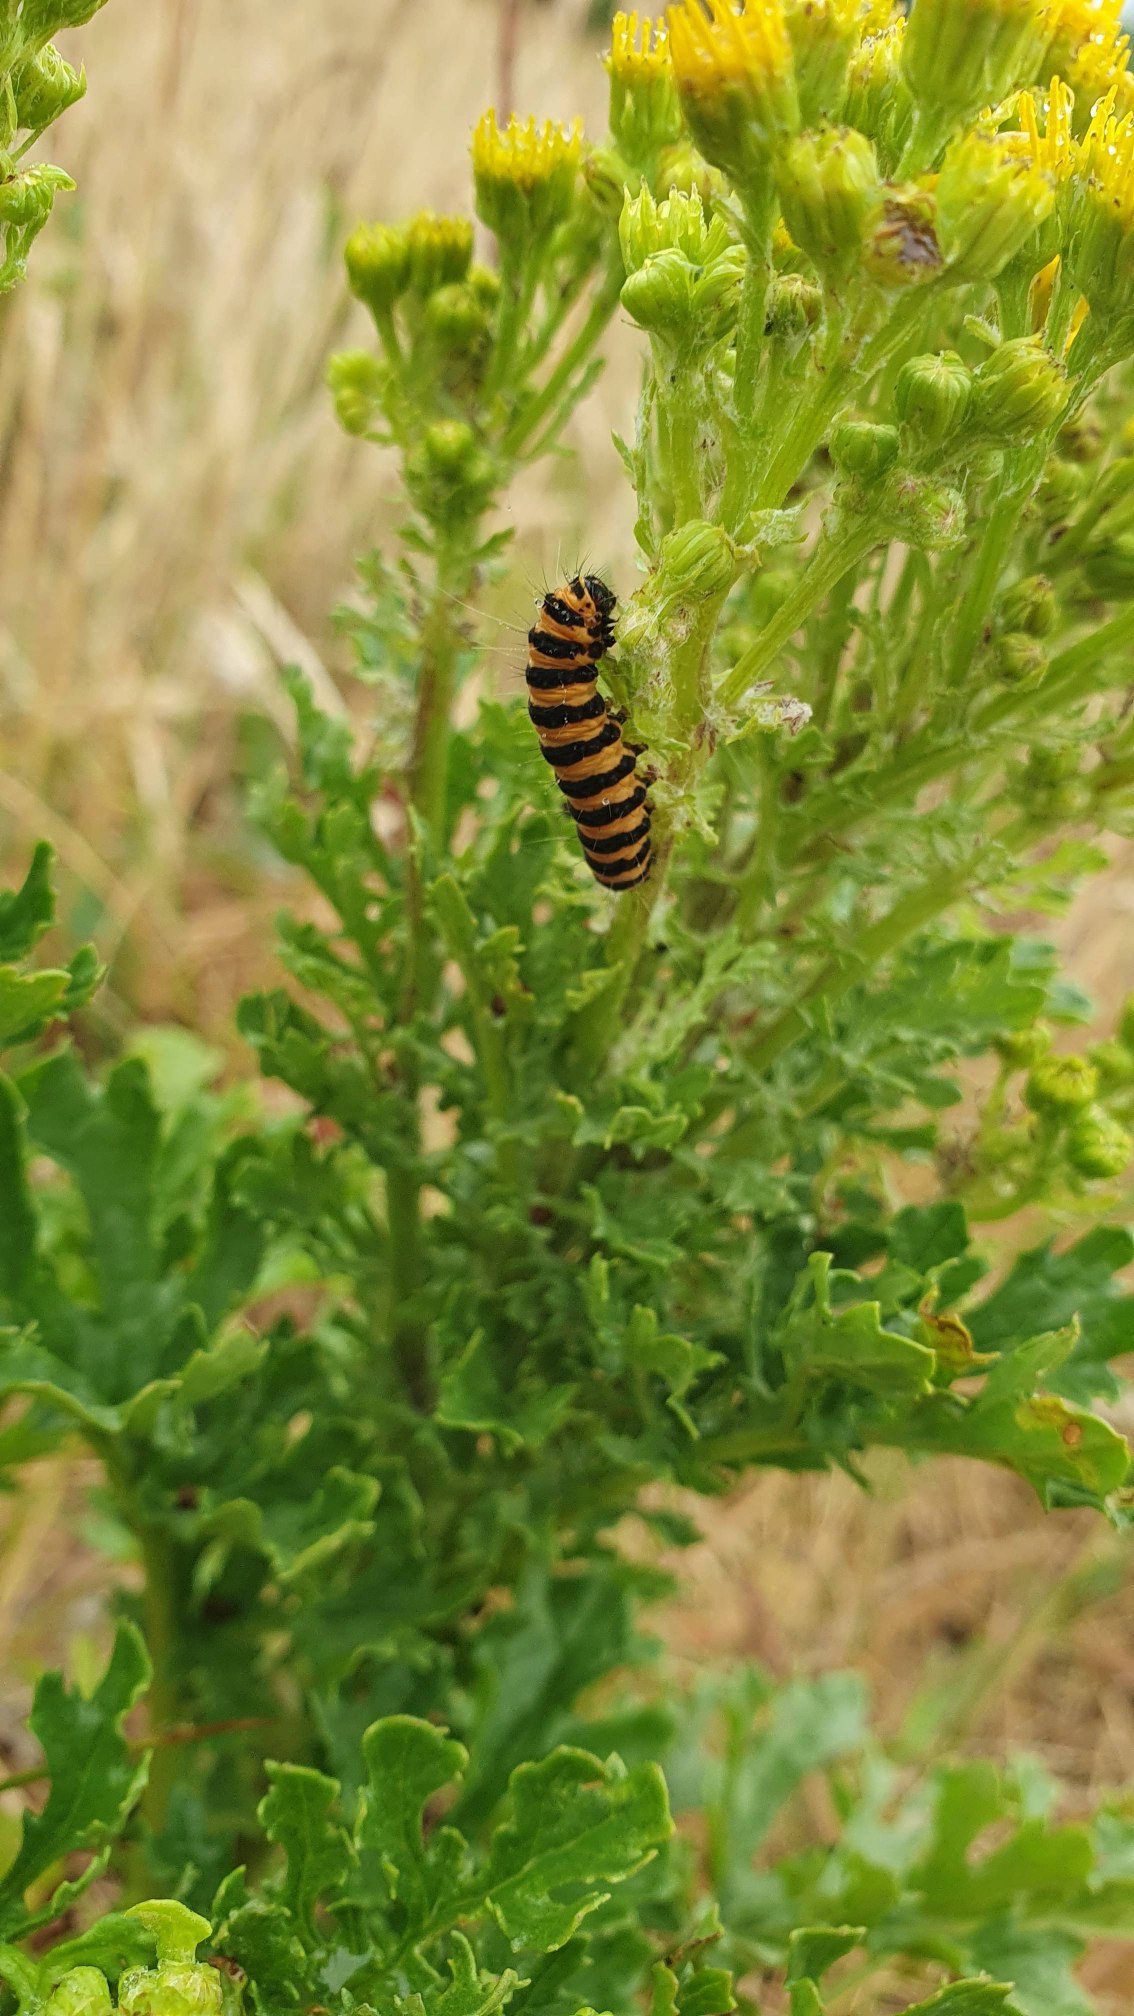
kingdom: Animalia
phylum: Arthropoda
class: Insecta
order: Lepidoptera
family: Erebidae
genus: Tyria
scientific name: Tyria jacobaeae
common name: Blodplet
